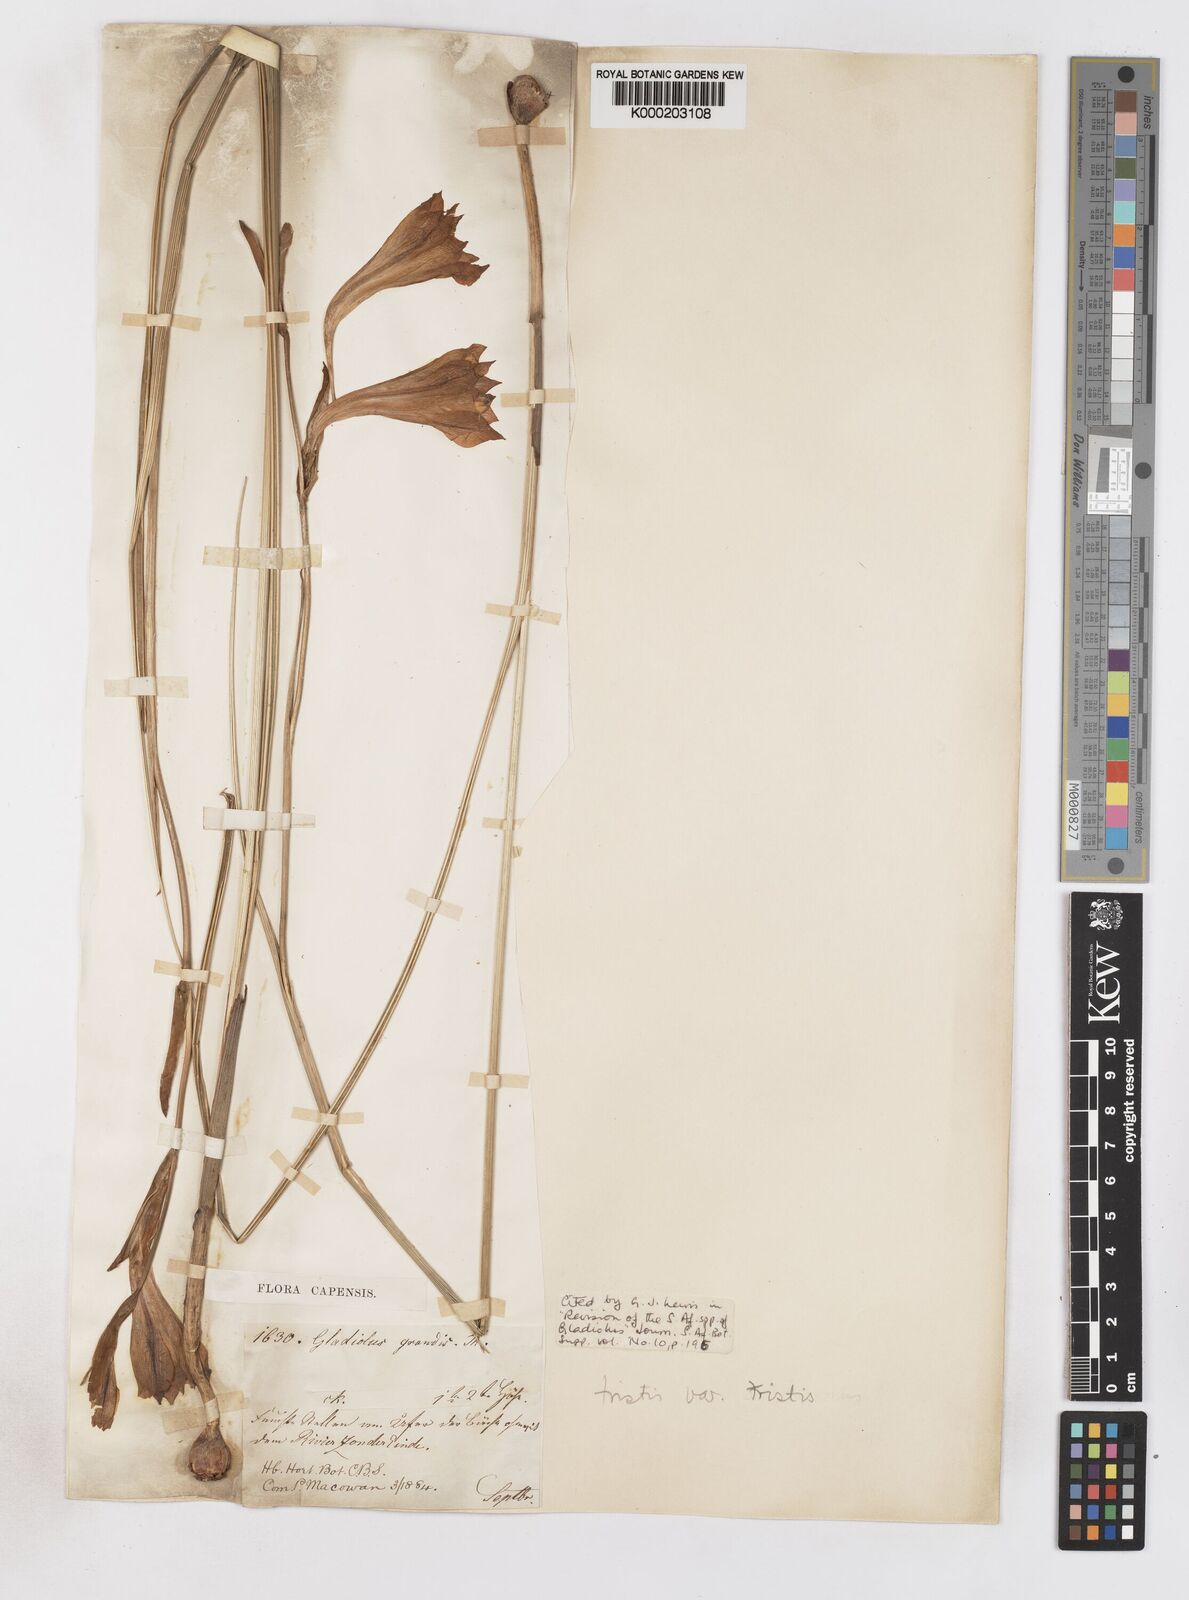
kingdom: Plantae
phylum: Tracheophyta
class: Liliopsida
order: Asparagales
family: Iridaceae
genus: Gladiolus
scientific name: Gladiolus tristis
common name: Ever-flowering gladiolus
